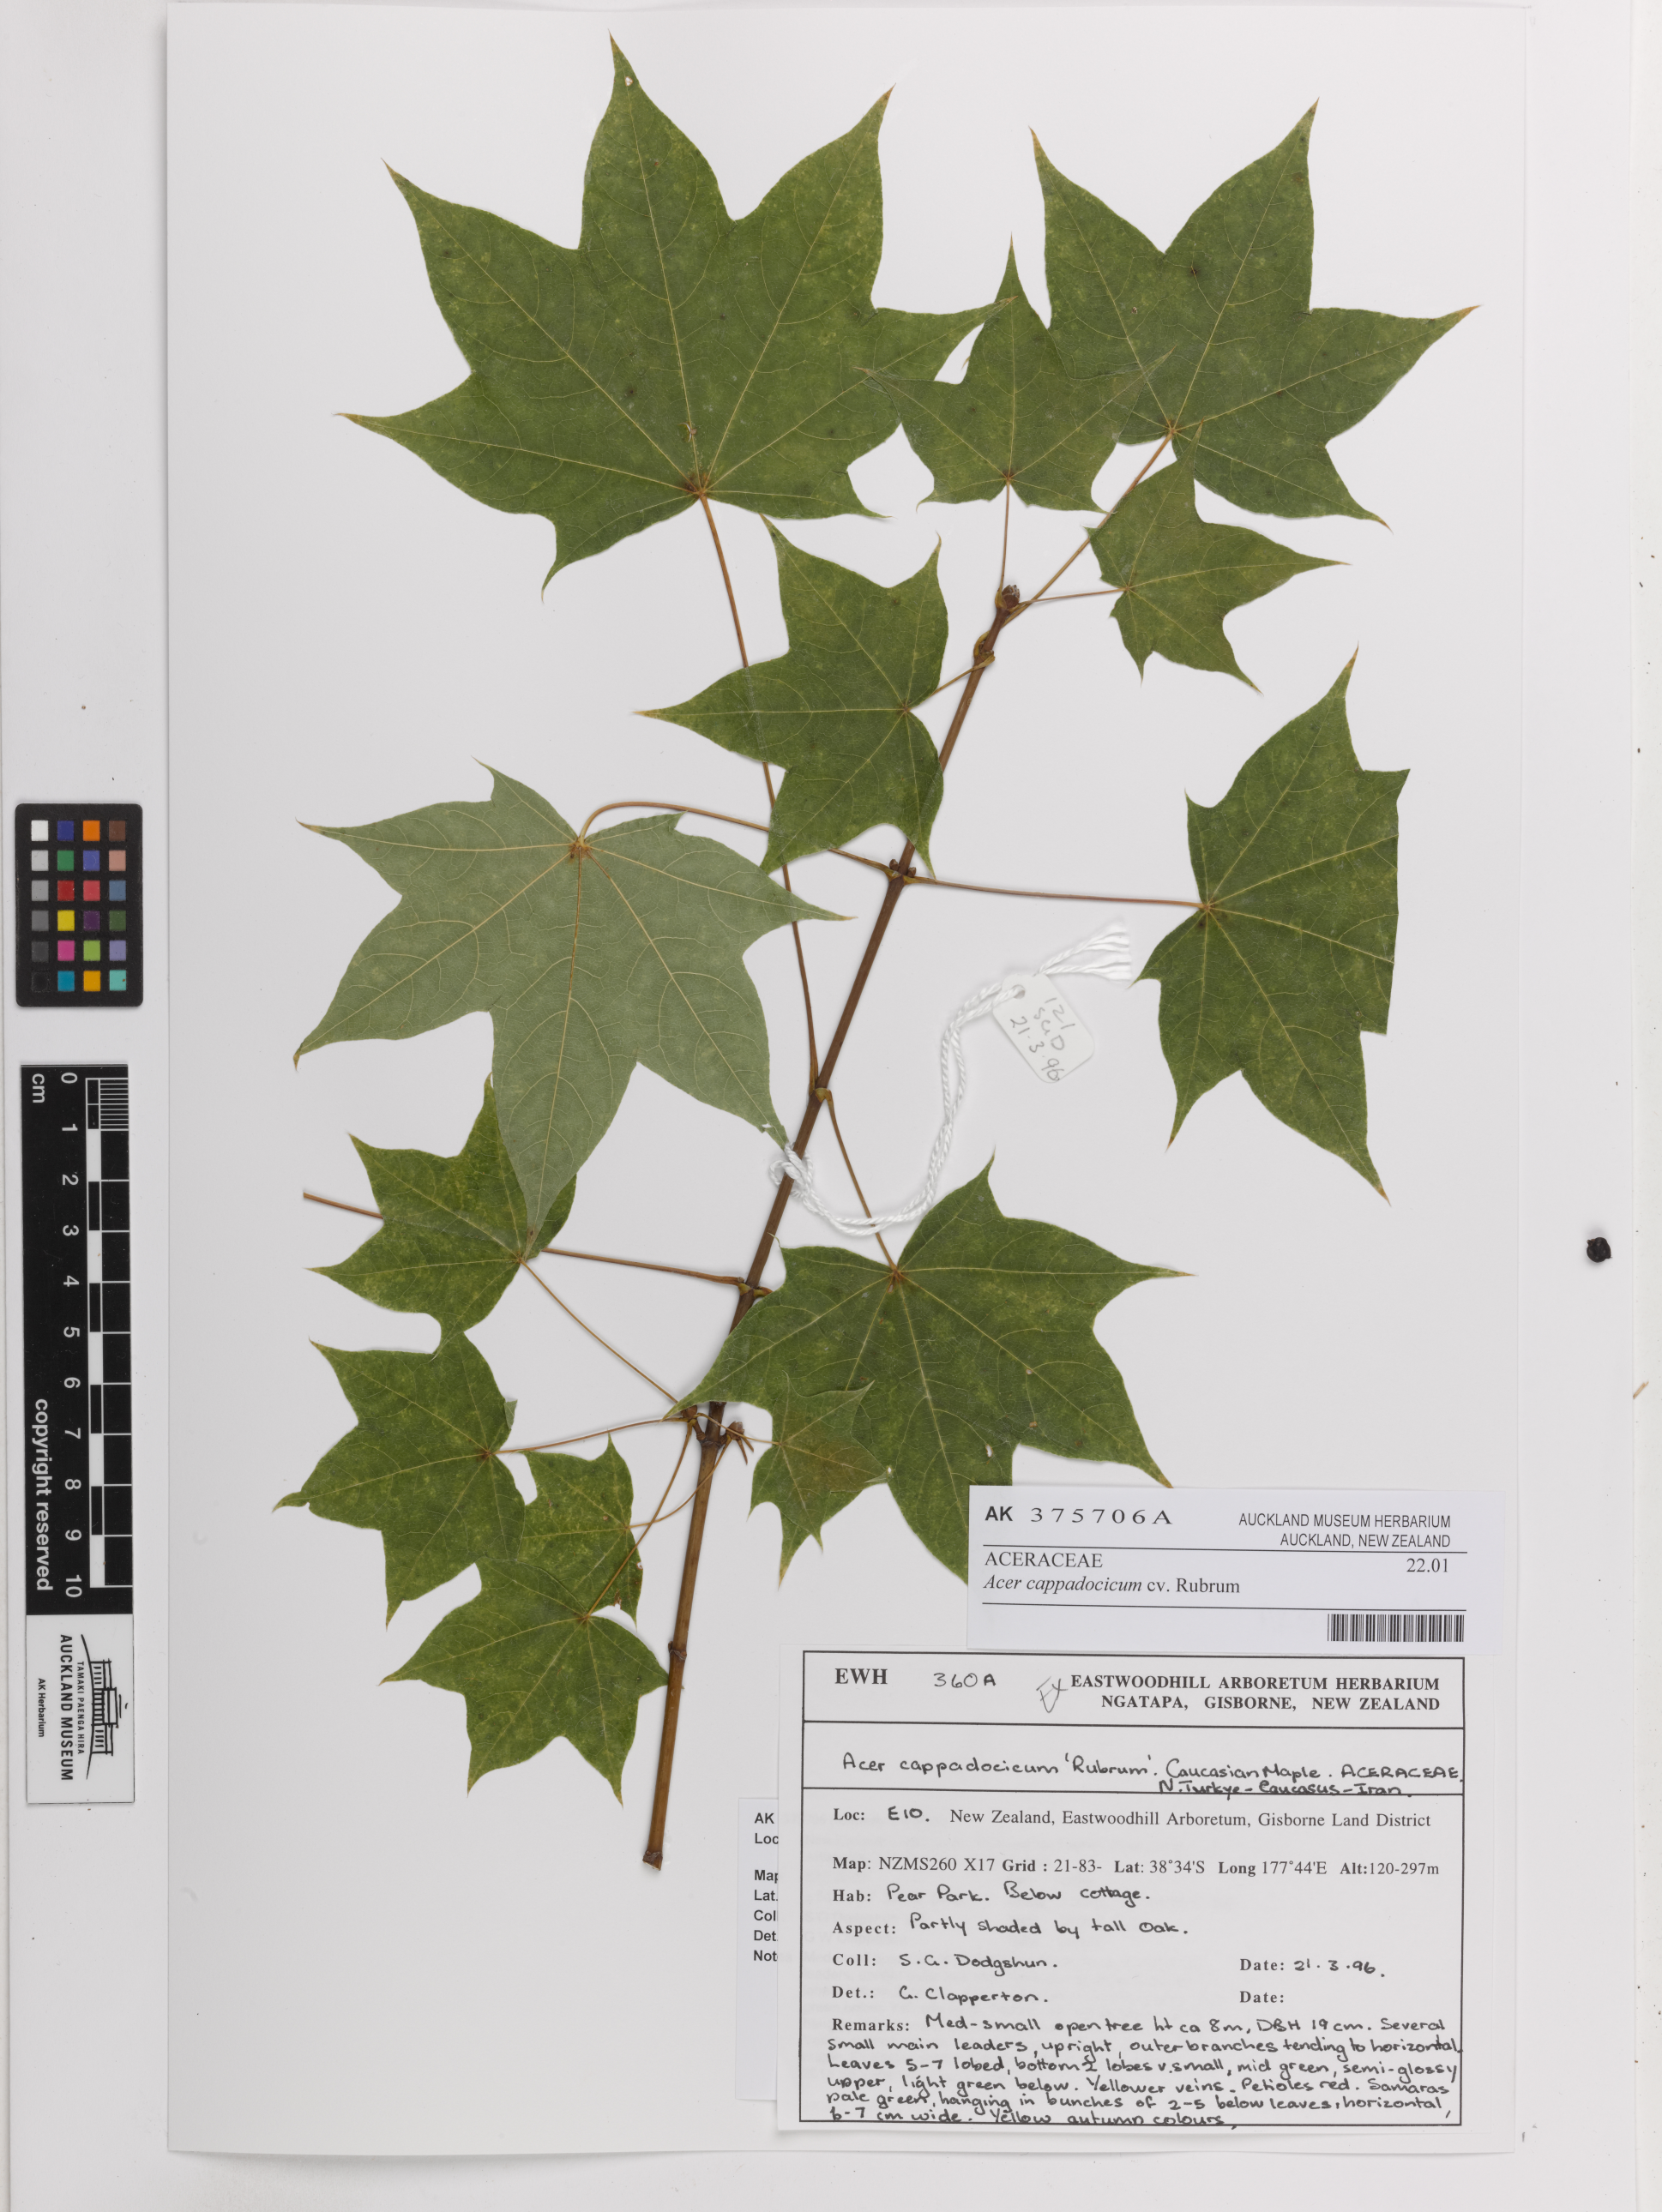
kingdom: Plantae
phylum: Tracheophyta
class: Magnoliopsida
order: Sapindales
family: Sapindaceae
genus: Acer
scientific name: Acer cappadocicum
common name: Cappadocian maple
